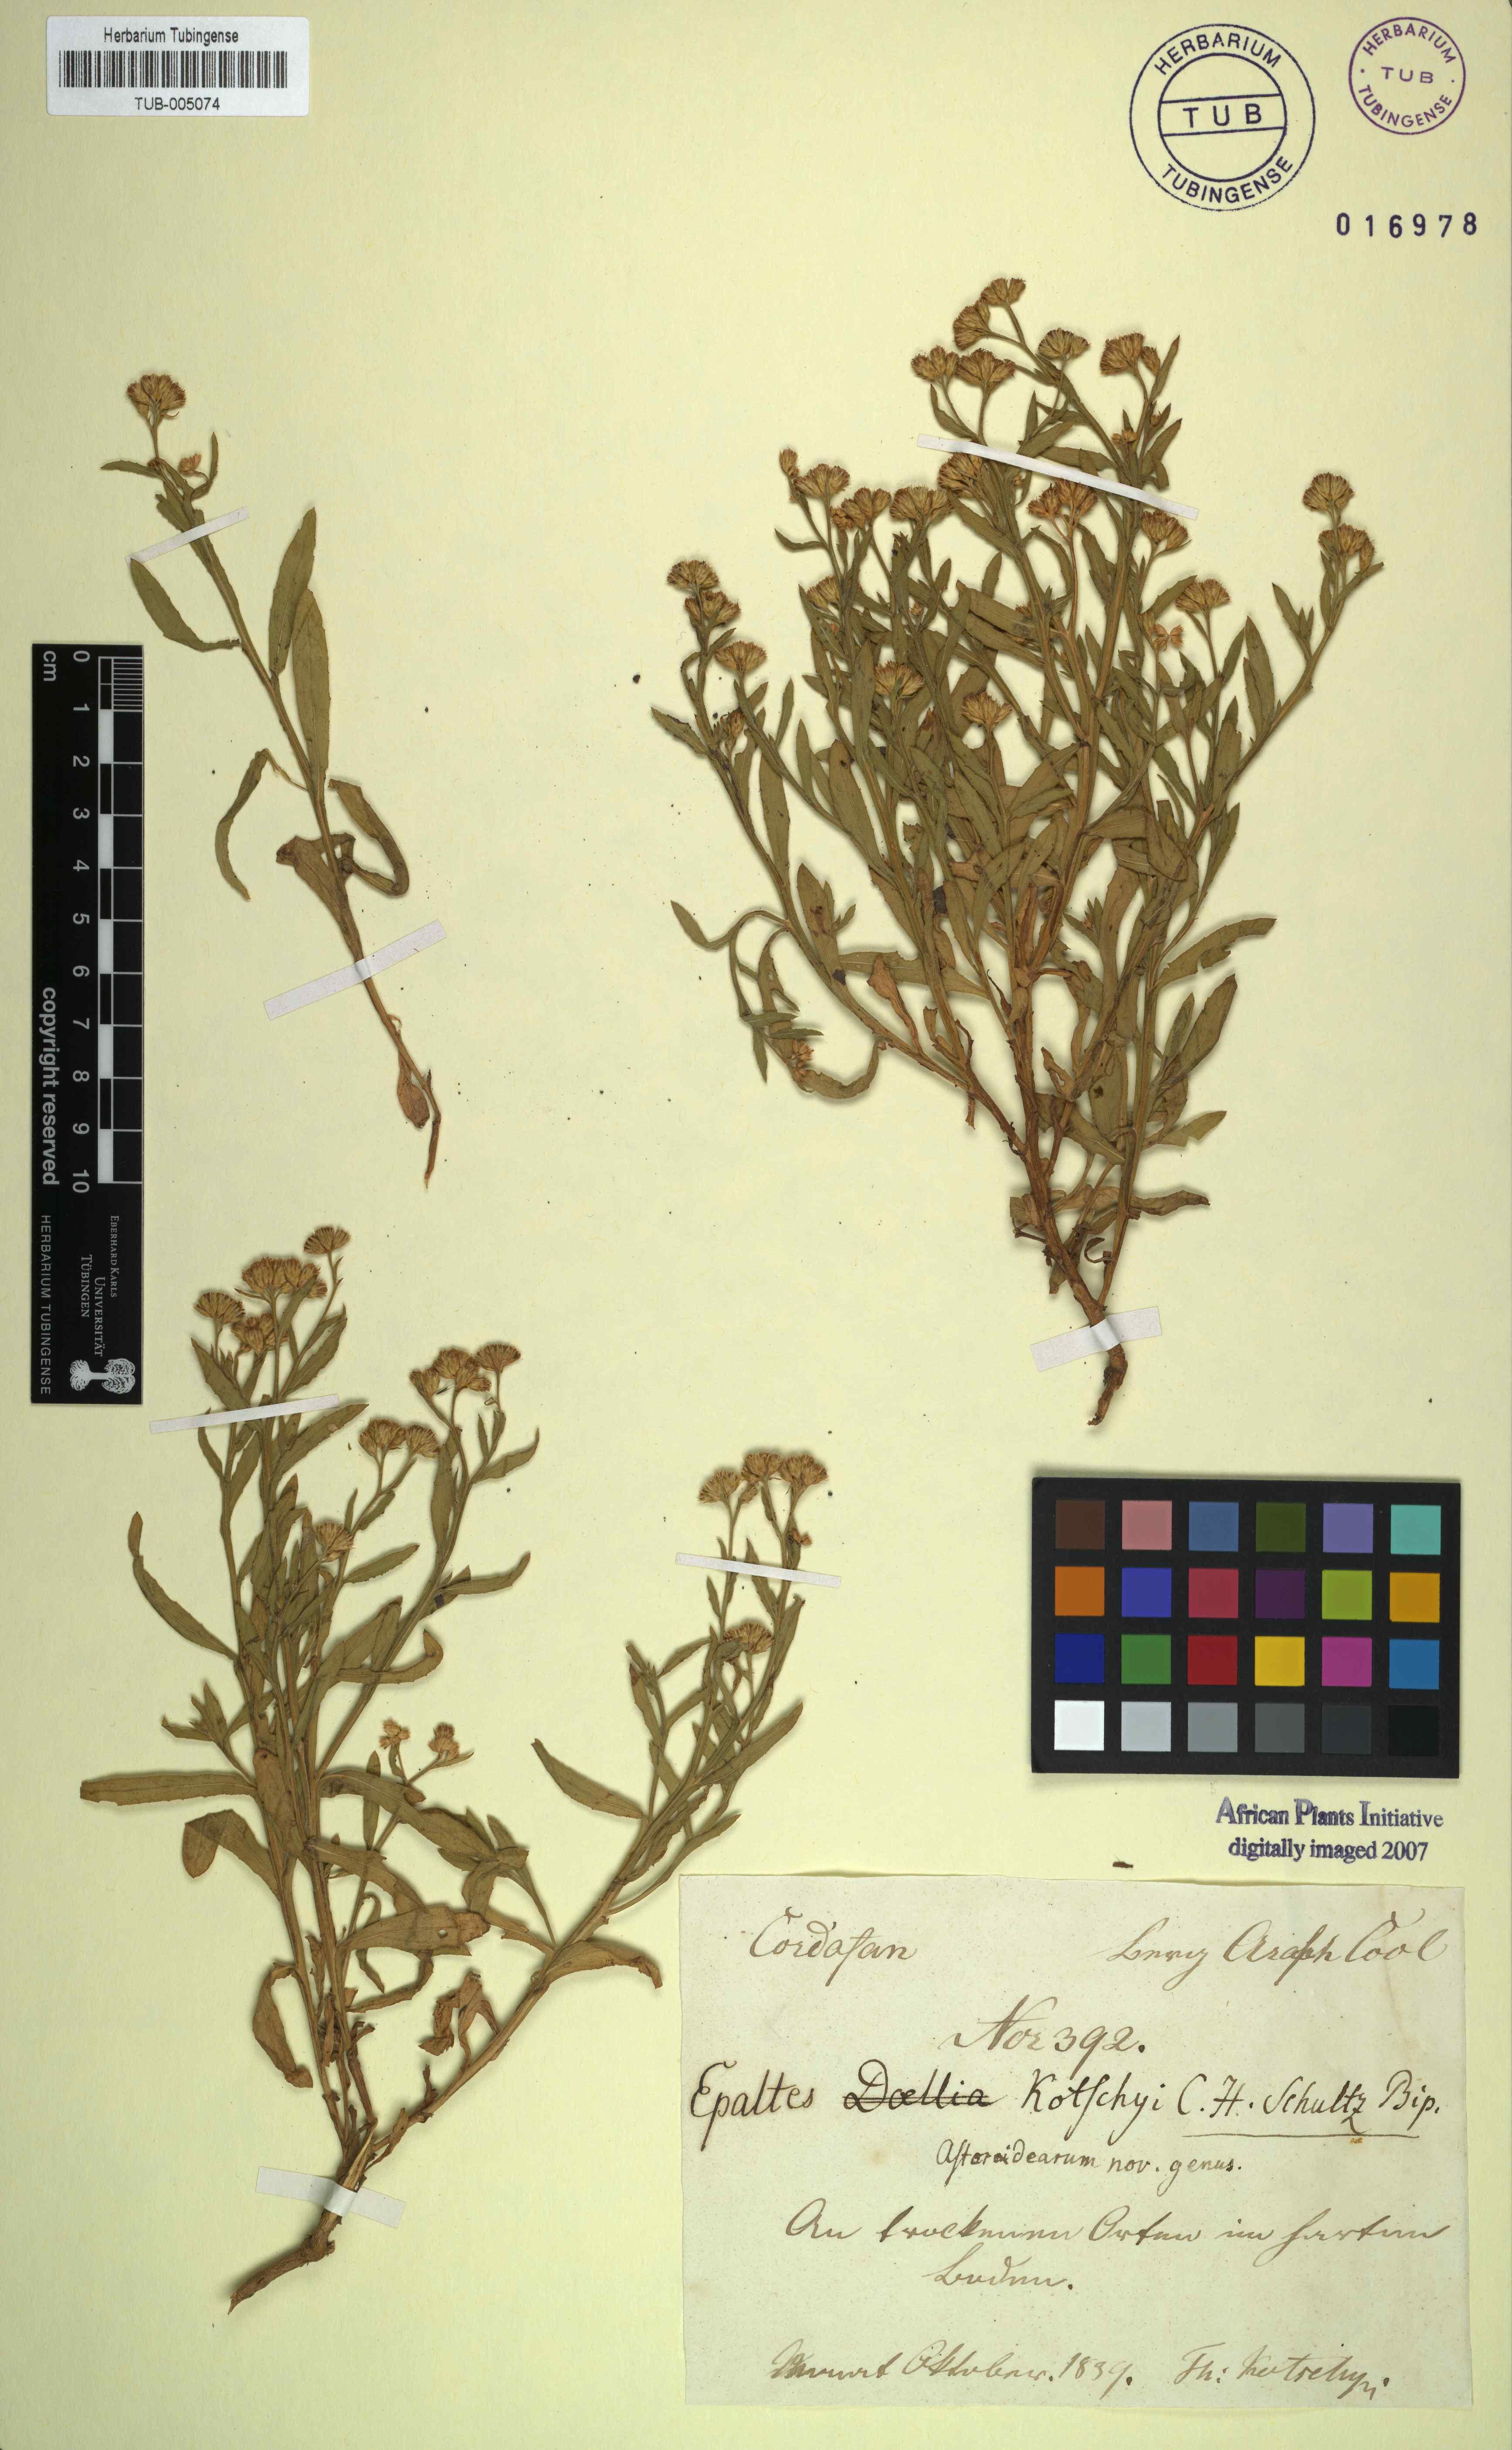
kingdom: Plantae
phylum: Tracheophyta
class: Magnoliopsida
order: Asterales
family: Asteraceae
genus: Epaltes
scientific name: Epaltes
